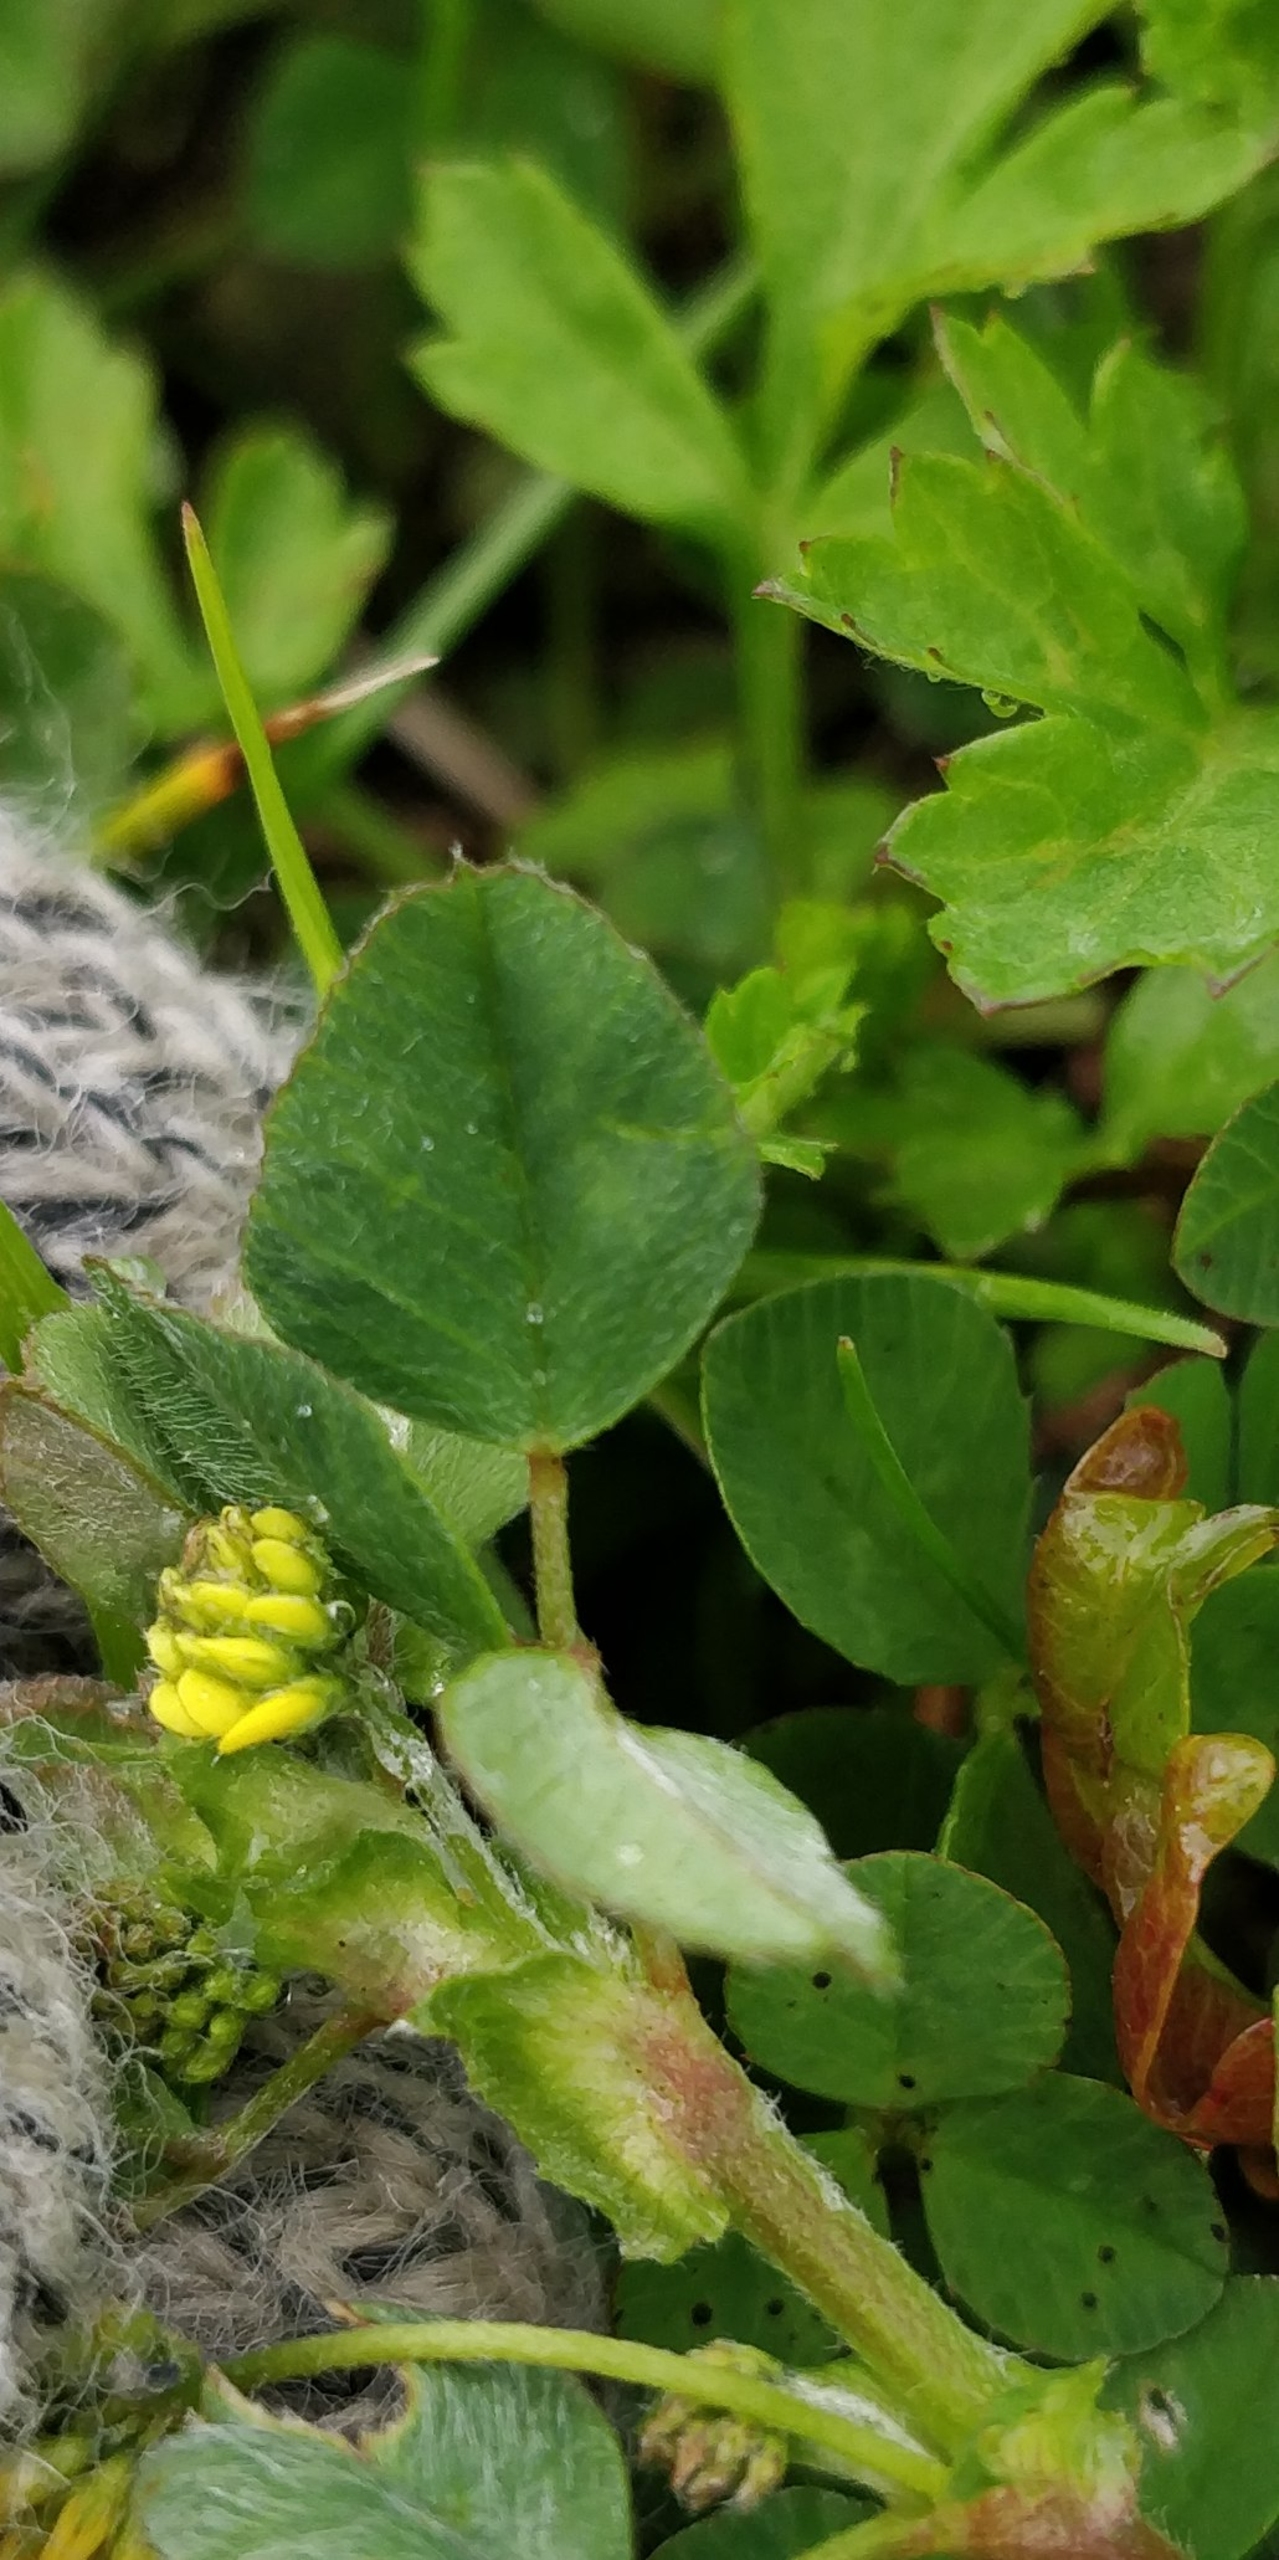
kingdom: Plantae
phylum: Tracheophyta
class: Magnoliopsida
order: Fabales
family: Fabaceae
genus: Medicago
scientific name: Medicago lupulina
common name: Humle-sneglebælg
